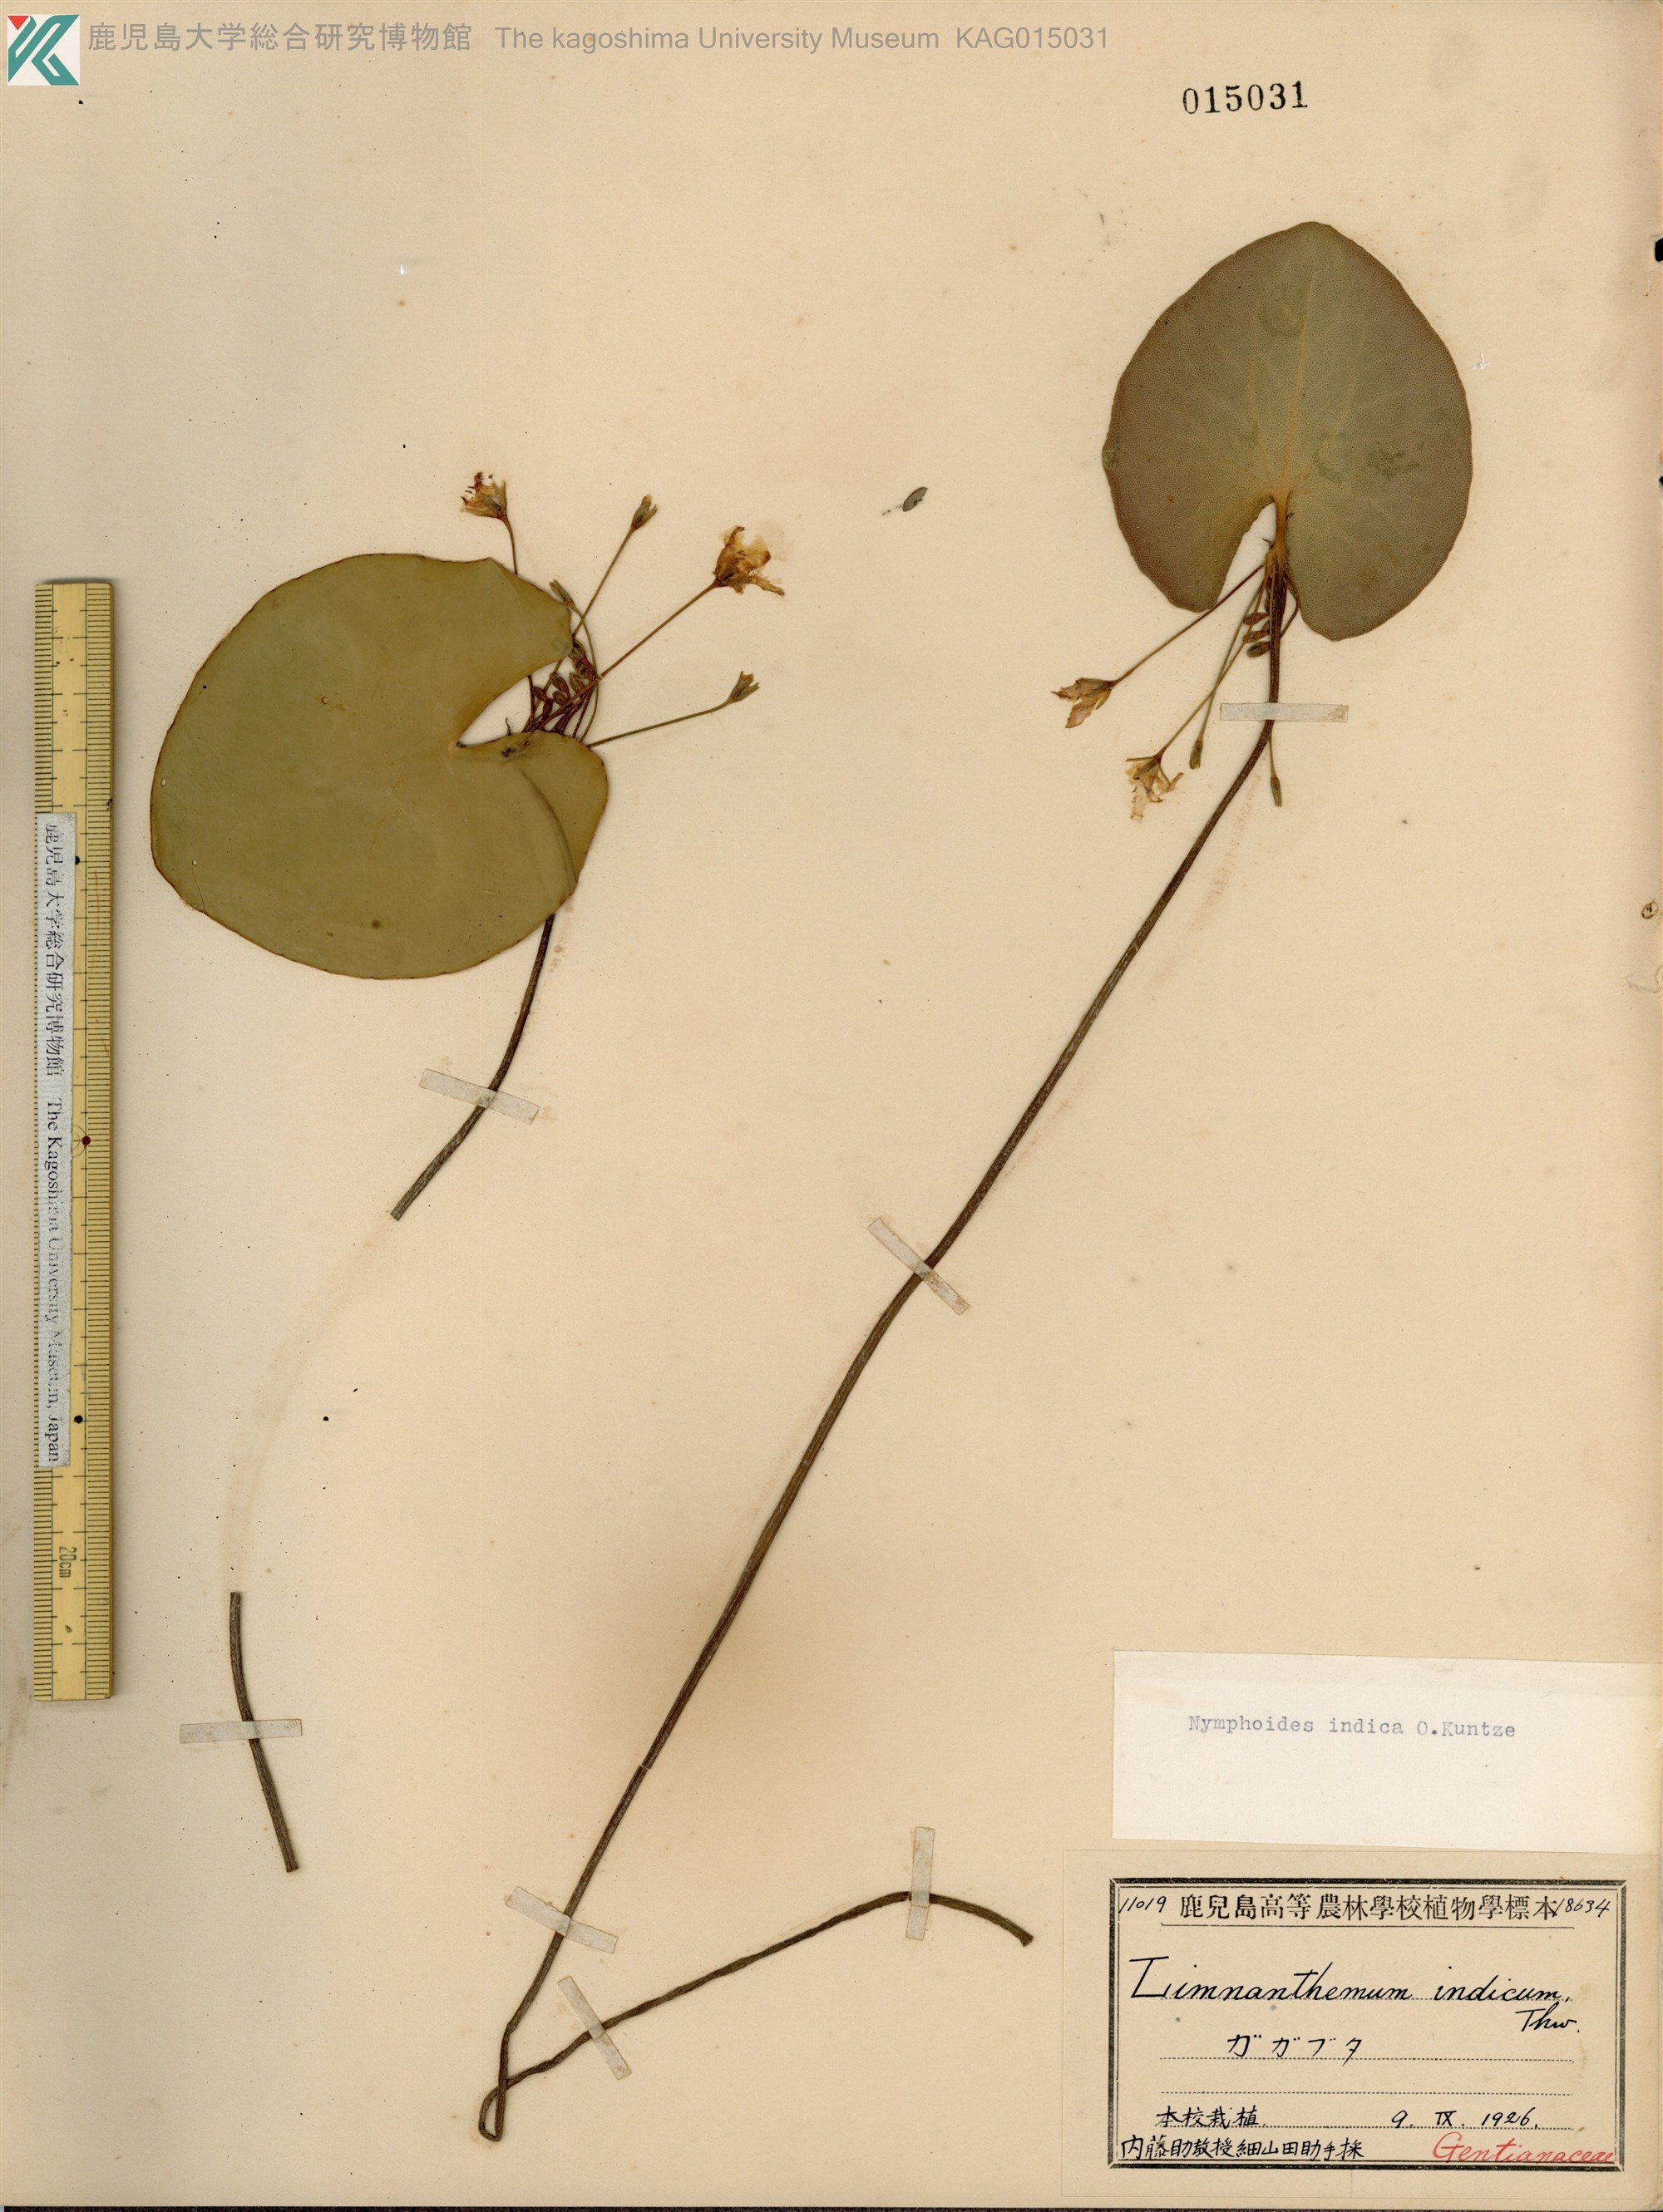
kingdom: Plantae
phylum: Tracheophyta
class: Magnoliopsida
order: Asterales
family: Menyanthaceae
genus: Nymphoides
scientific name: Nymphoides indica
